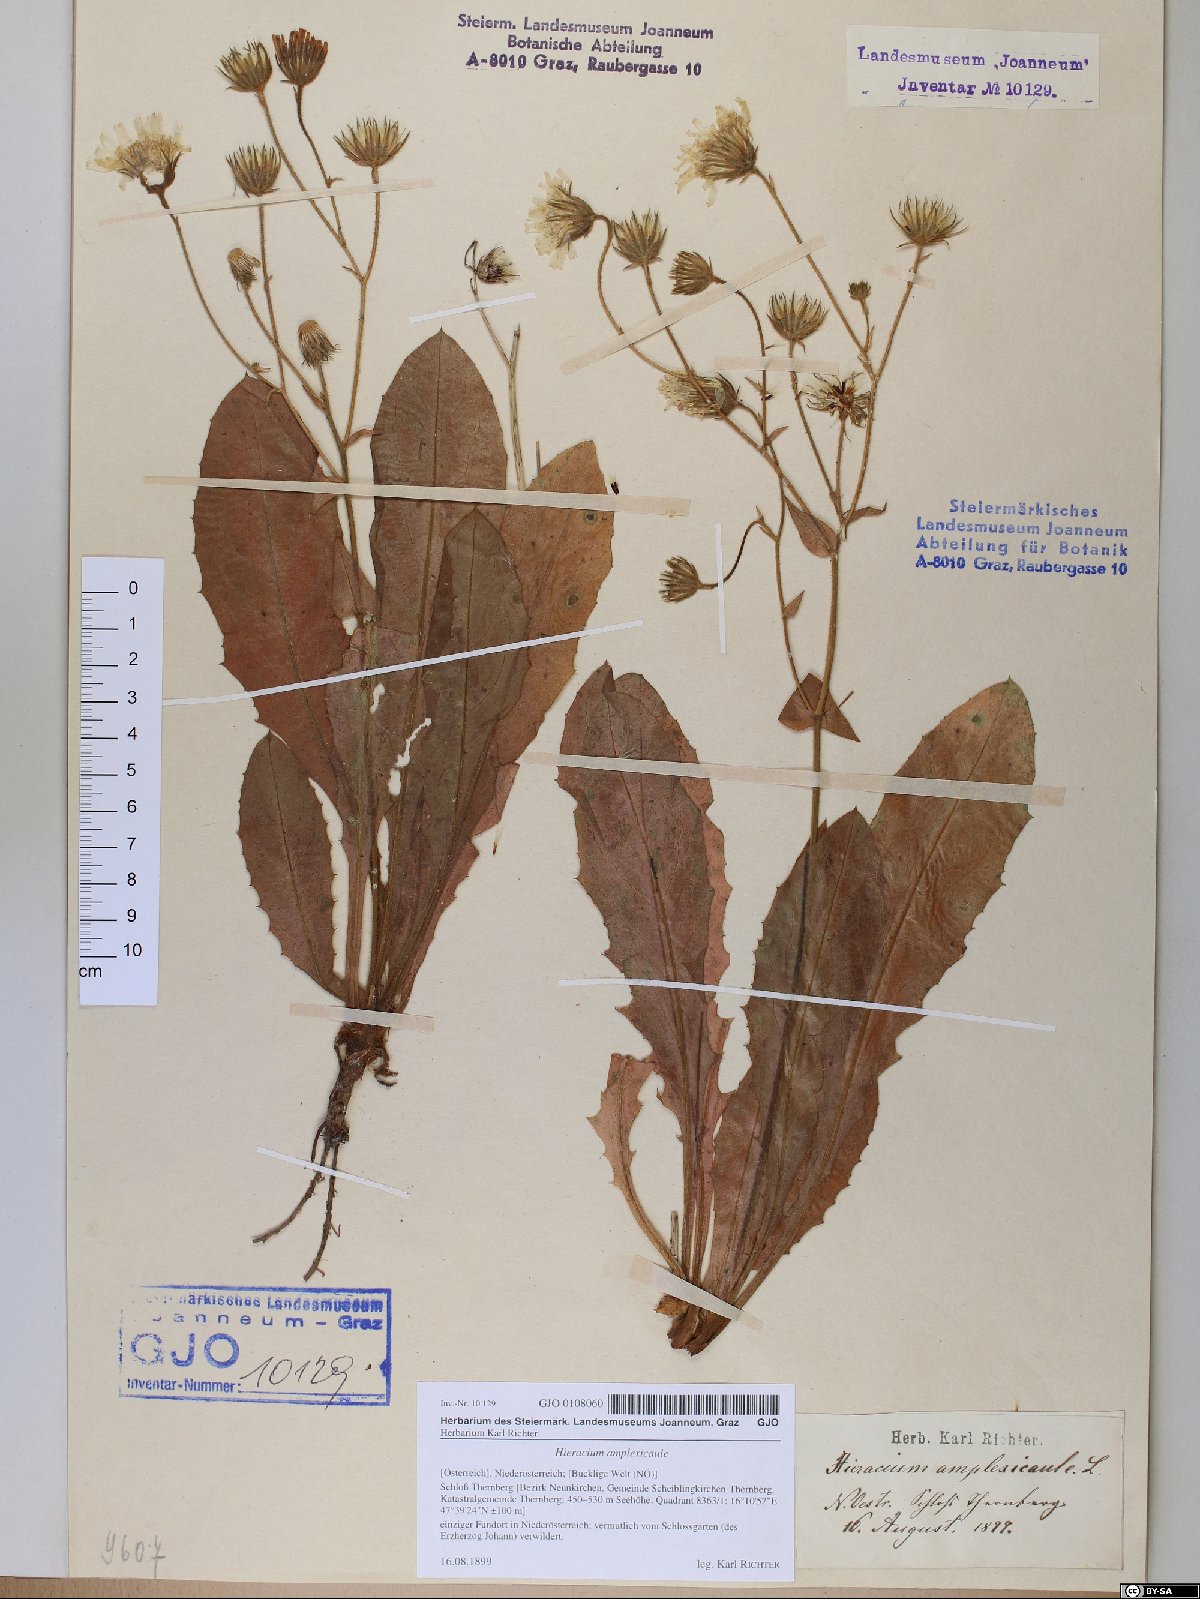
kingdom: Plantae
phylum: Tracheophyta
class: Magnoliopsida
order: Asterales
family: Asteraceae
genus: Hieracium
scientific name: Hieracium amplexicaule
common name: Sticky hawkweed
